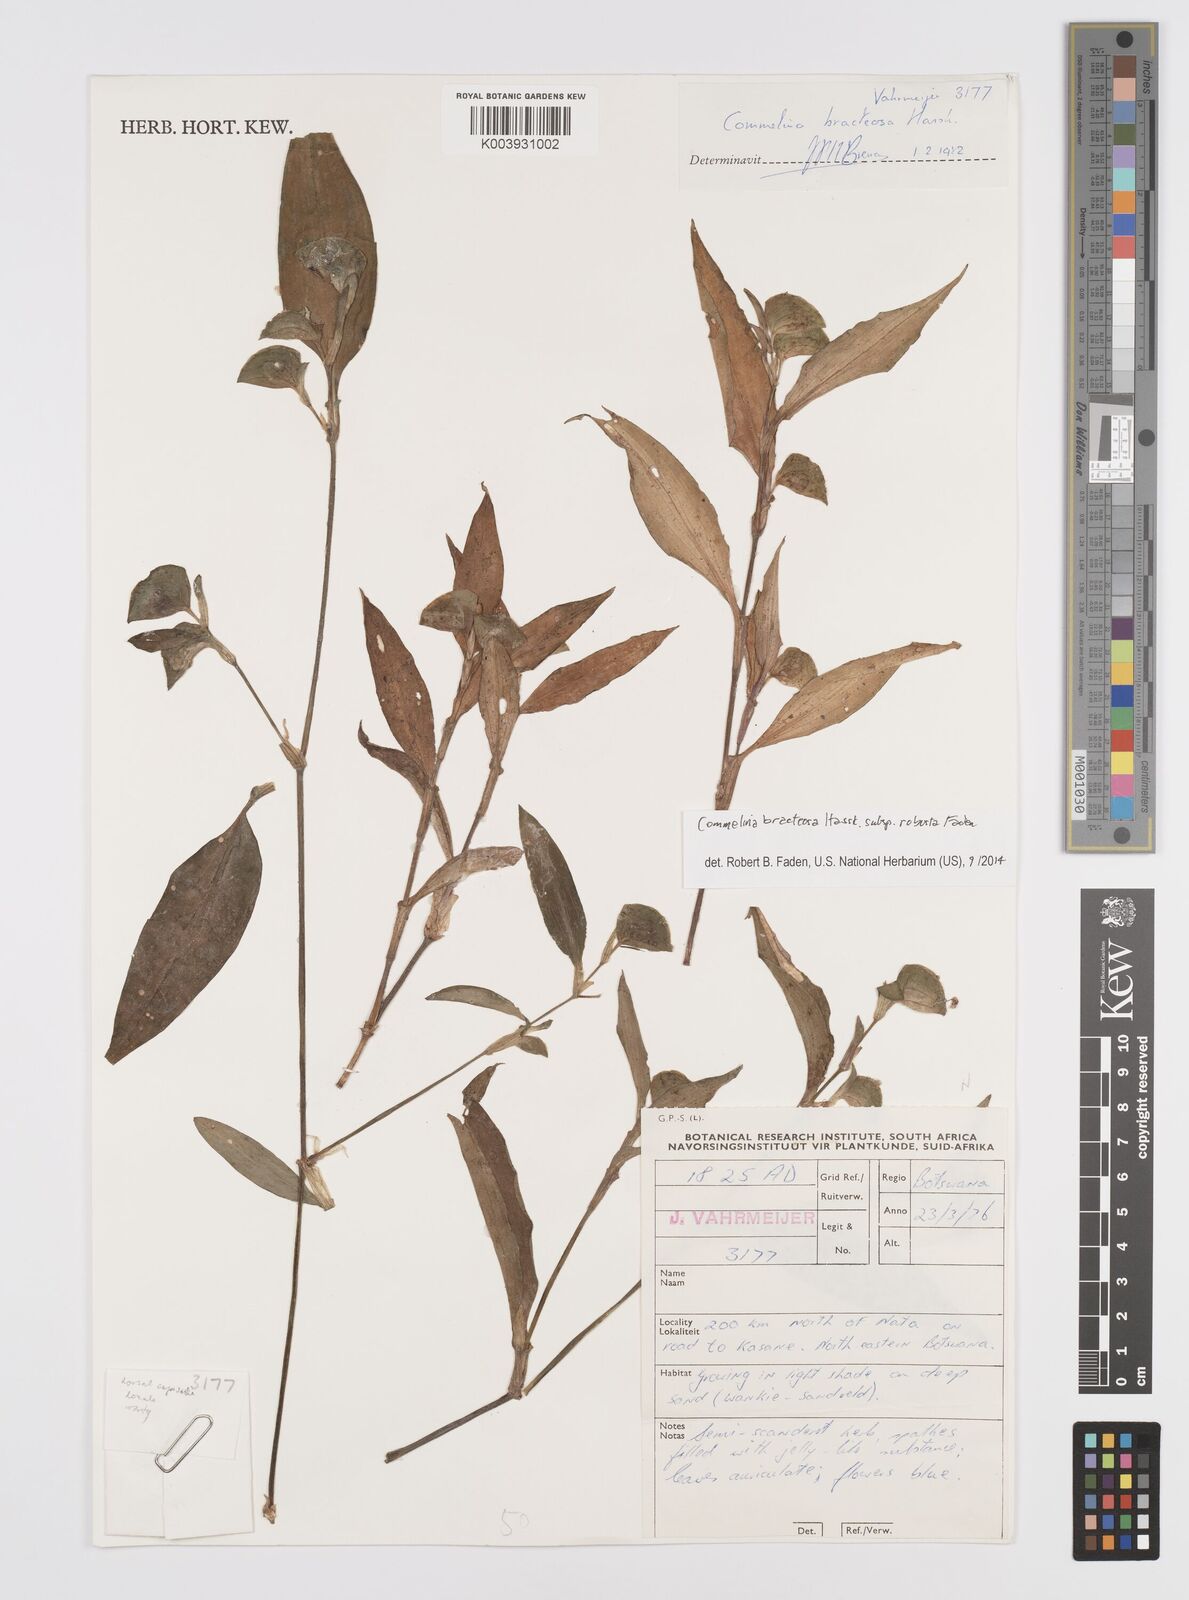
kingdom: Plantae
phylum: Tracheophyta
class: Liliopsida
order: Commelinales
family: Commelinaceae
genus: Commelina
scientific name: Commelina bracteosa
